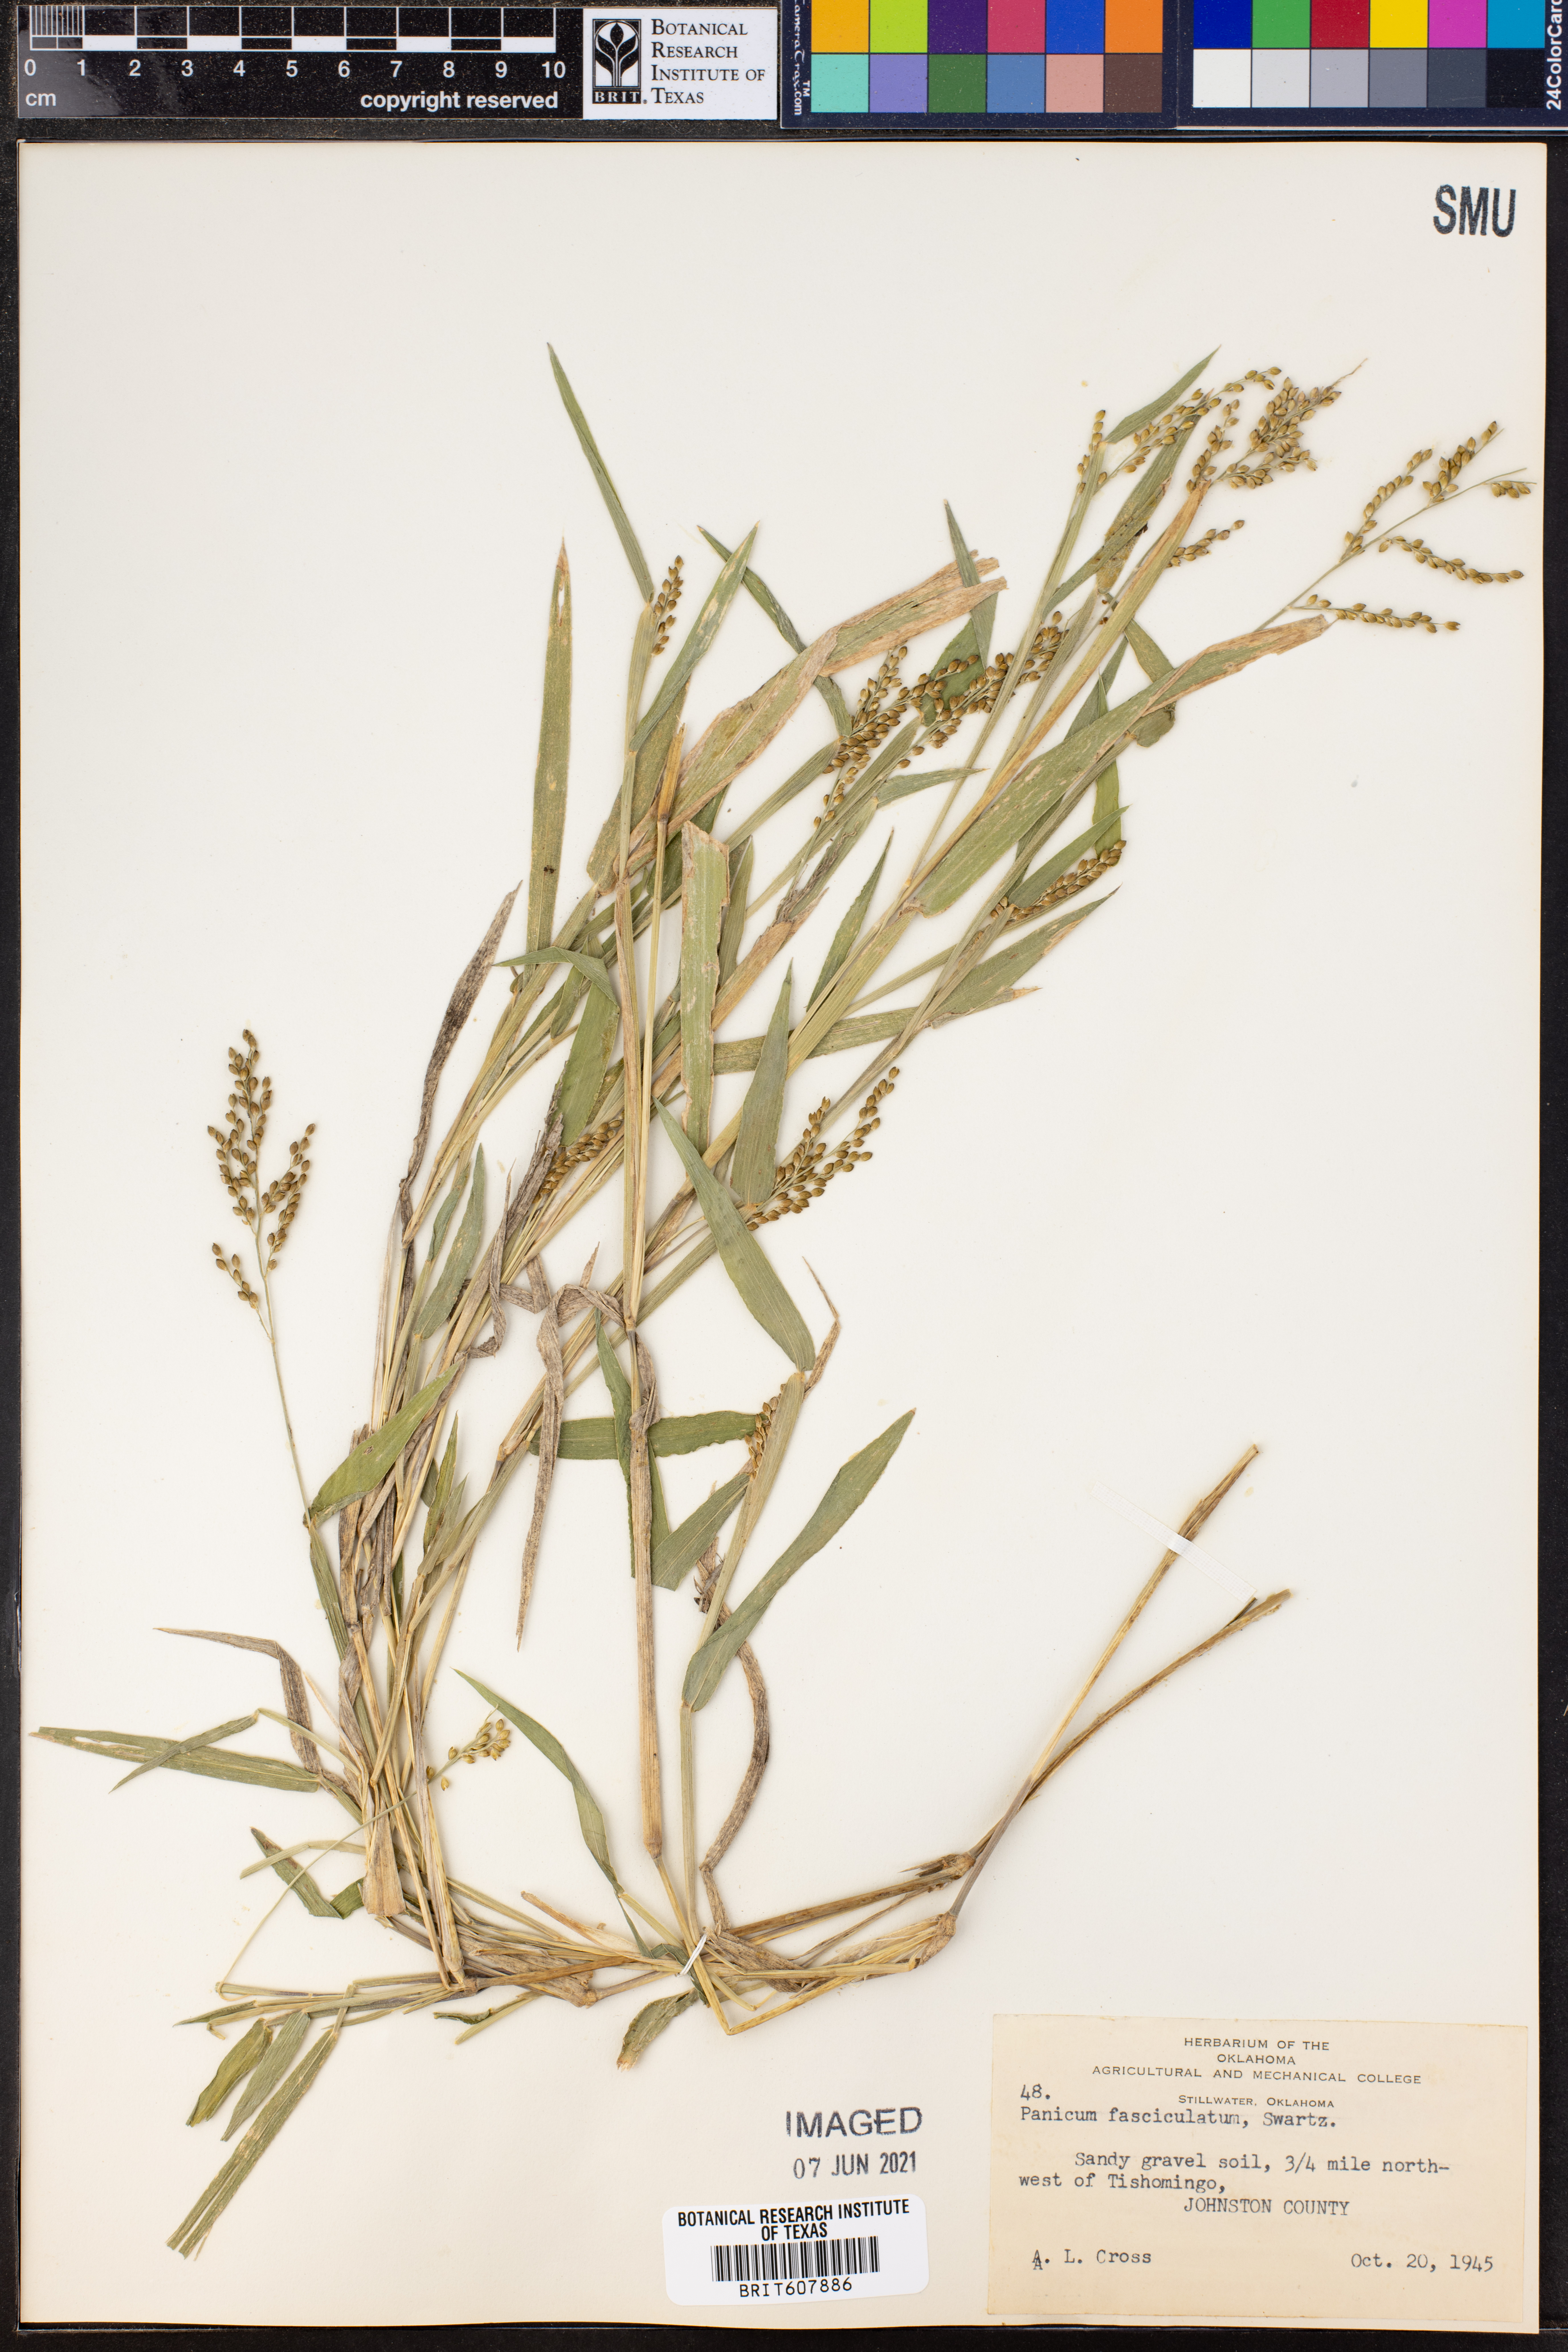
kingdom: Plantae
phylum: Tracheophyta
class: Liliopsida
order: Poales
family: Poaceae
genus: Urochloa
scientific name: Urochloa fusca
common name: Browntop signal grass
